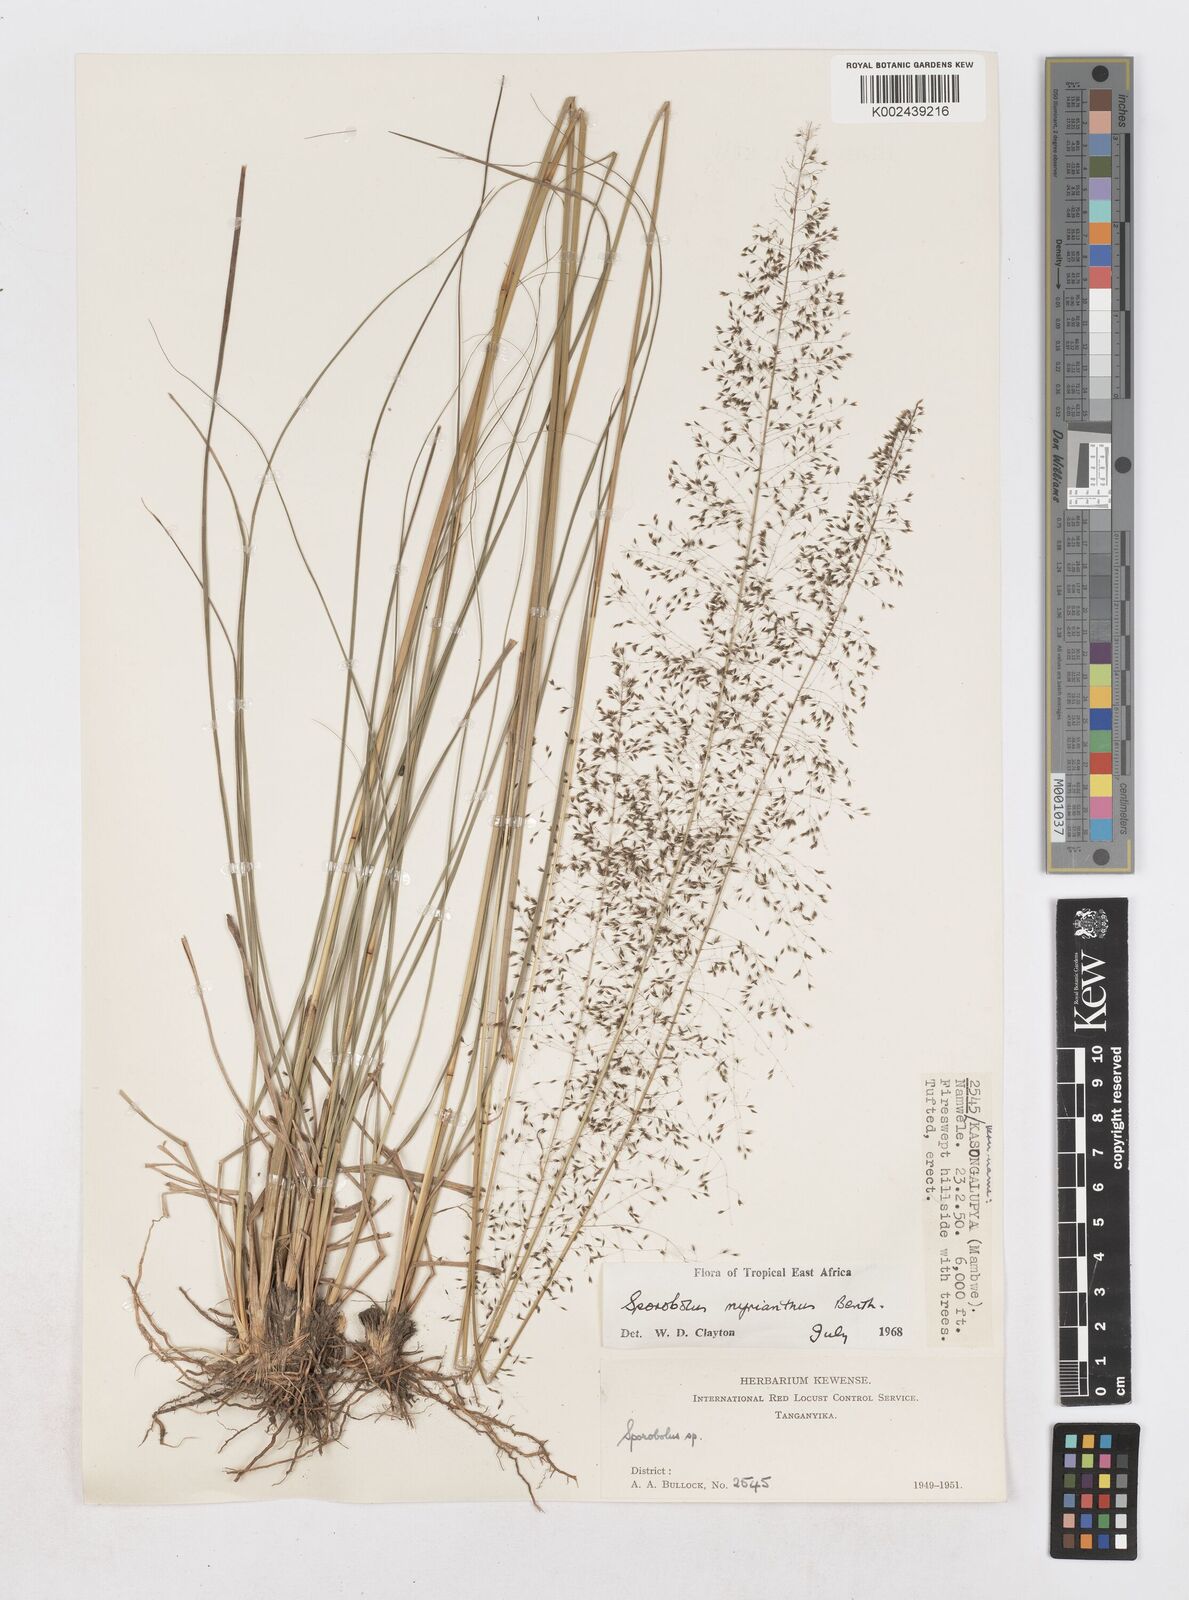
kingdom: Plantae
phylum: Tracheophyta
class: Liliopsida
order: Poales
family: Poaceae
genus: Sporobolus
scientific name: Sporobolus myrianthus
